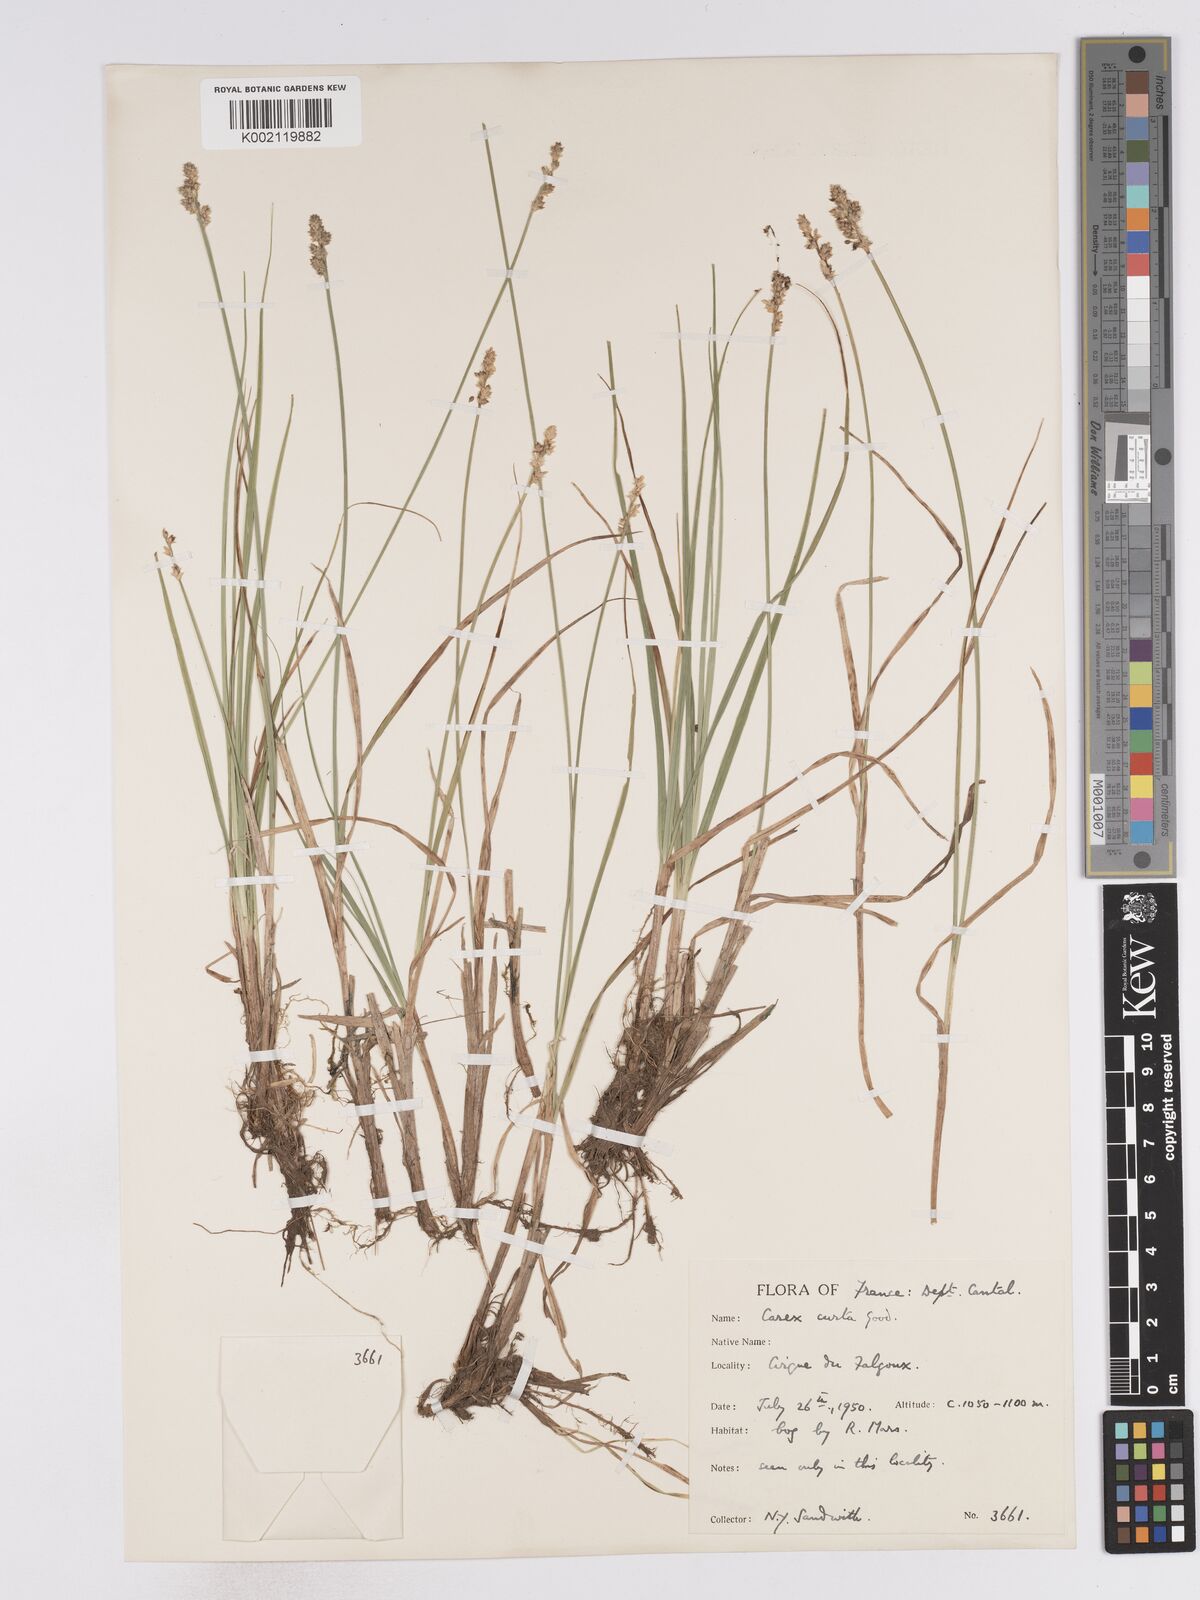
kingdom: Plantae
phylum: Tracheophyta
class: Liliopsida
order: Poales
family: Cyperaceae
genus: Carex
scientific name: Carex curta
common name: White sedge
